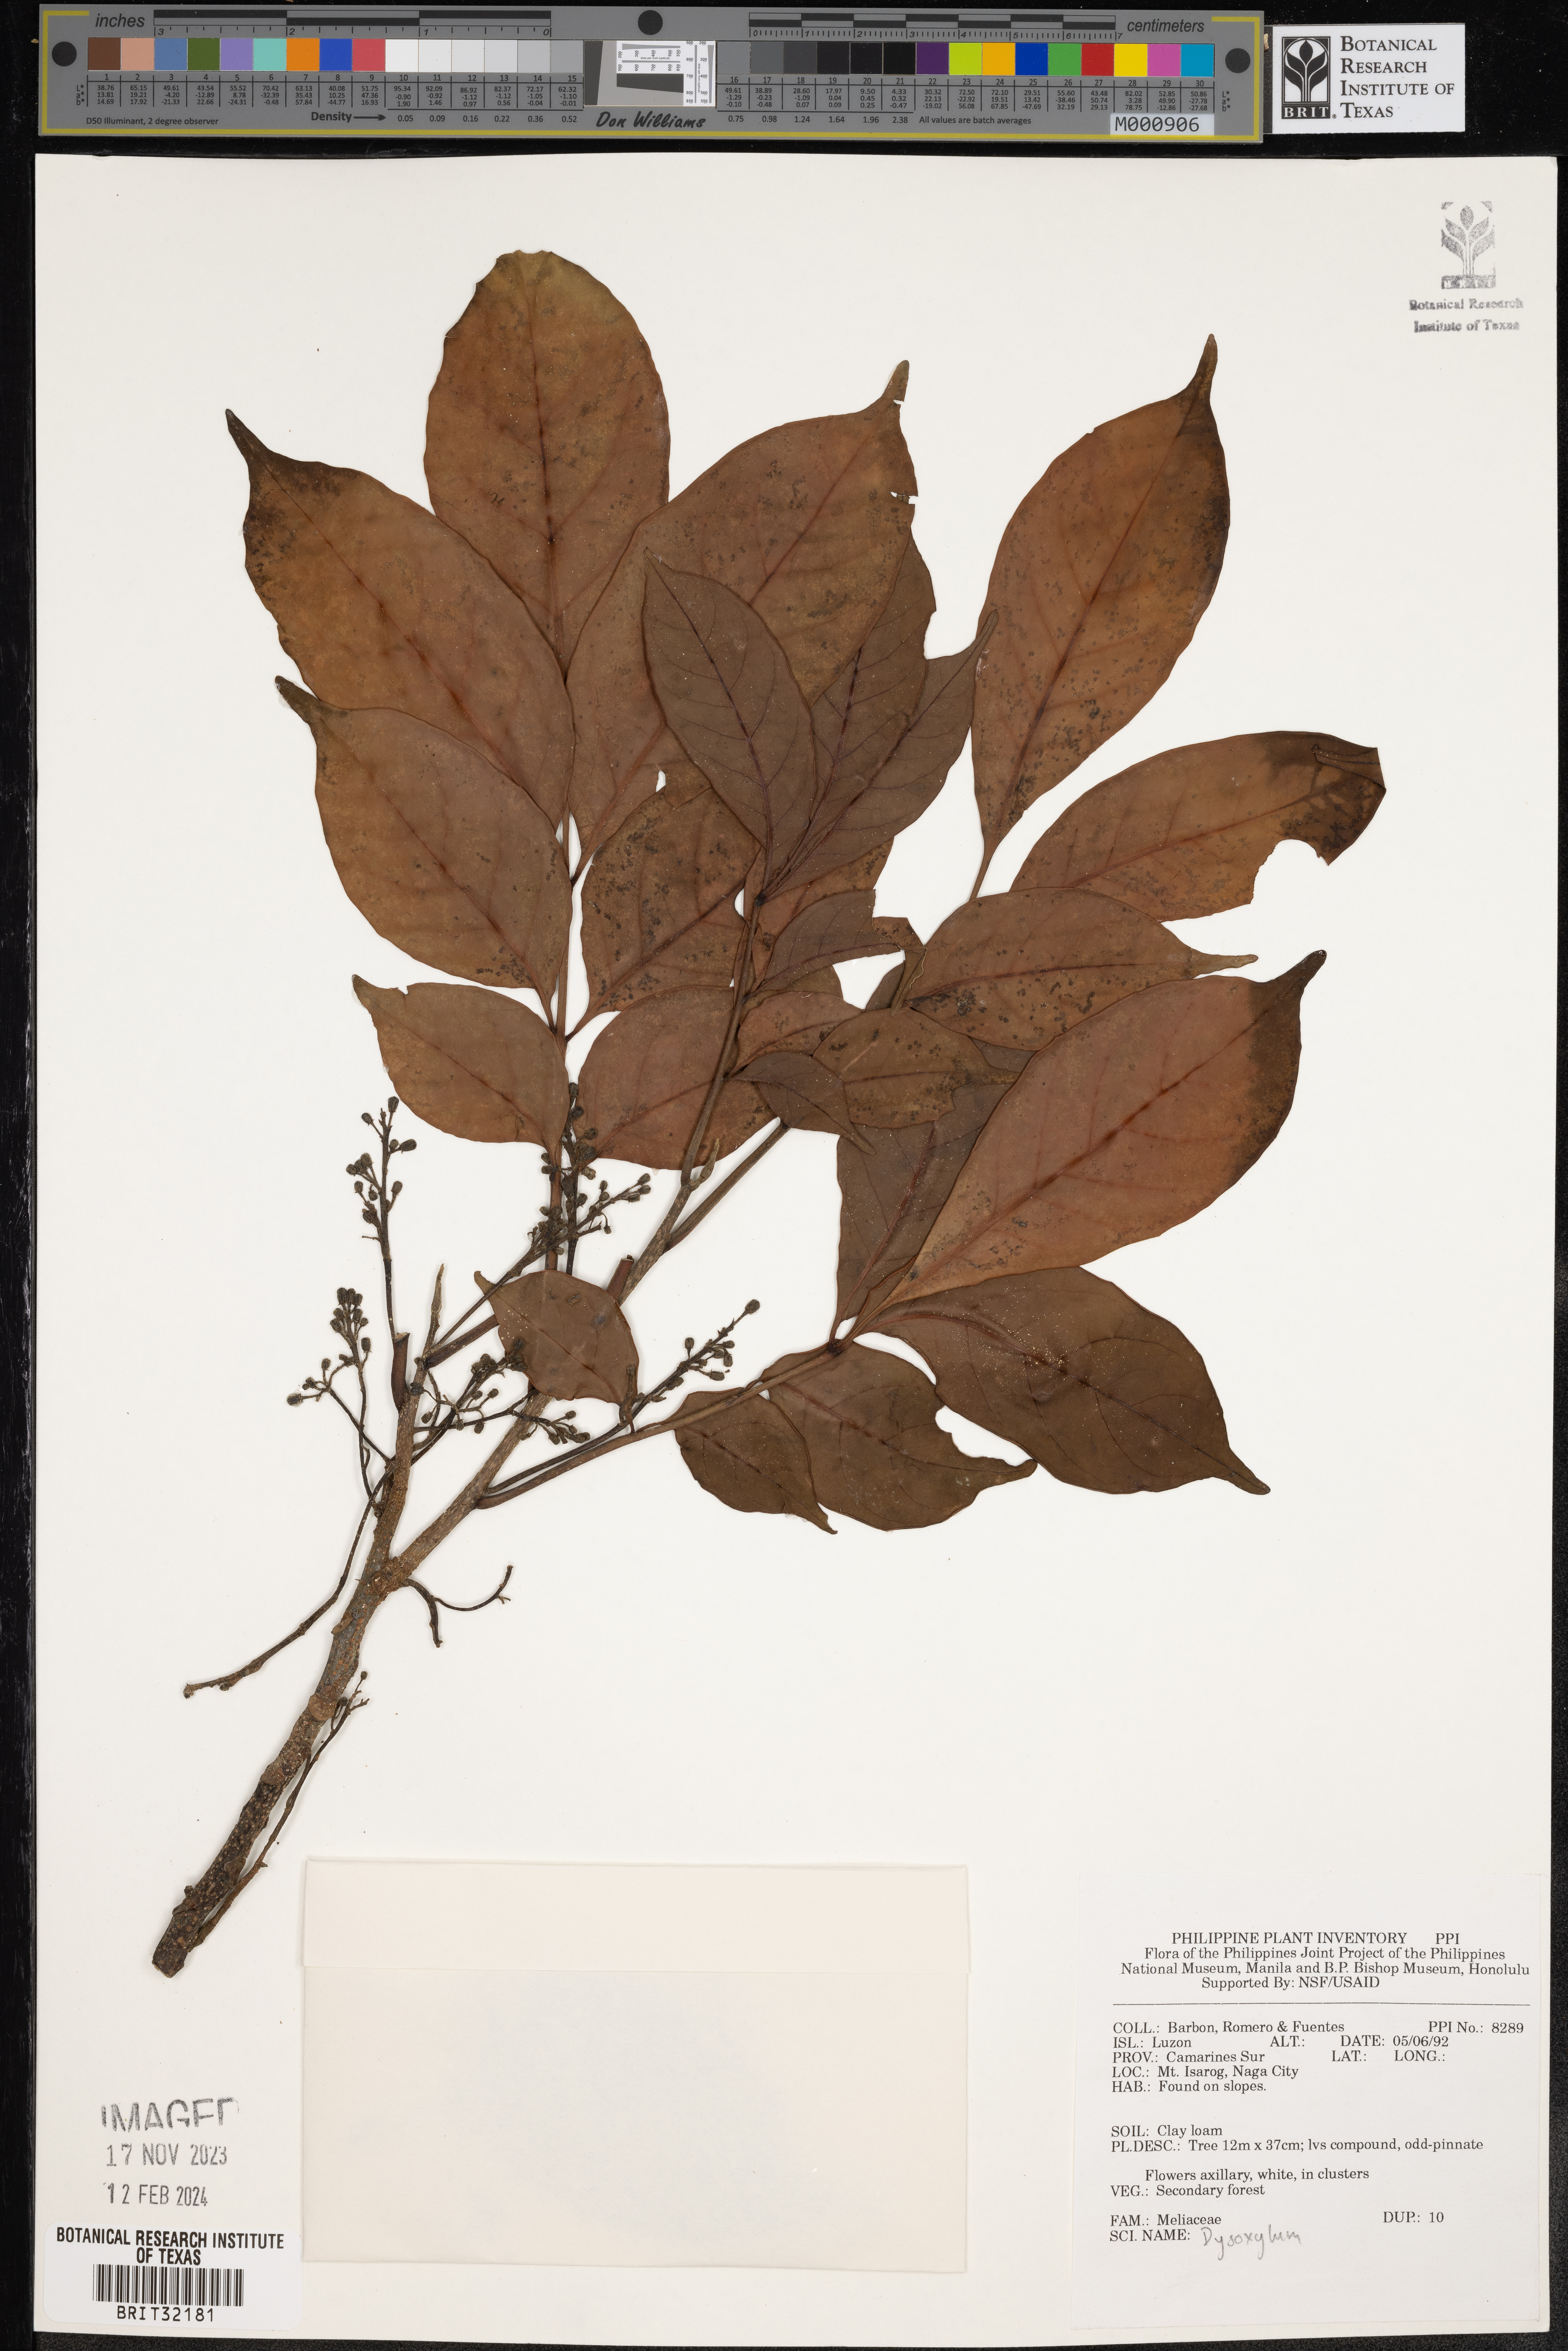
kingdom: Plantae
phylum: Tracheophyta
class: Magnoliopsida
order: Sapindales
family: Meliaceae
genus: Dysoxylum
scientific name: Dysoxylum
